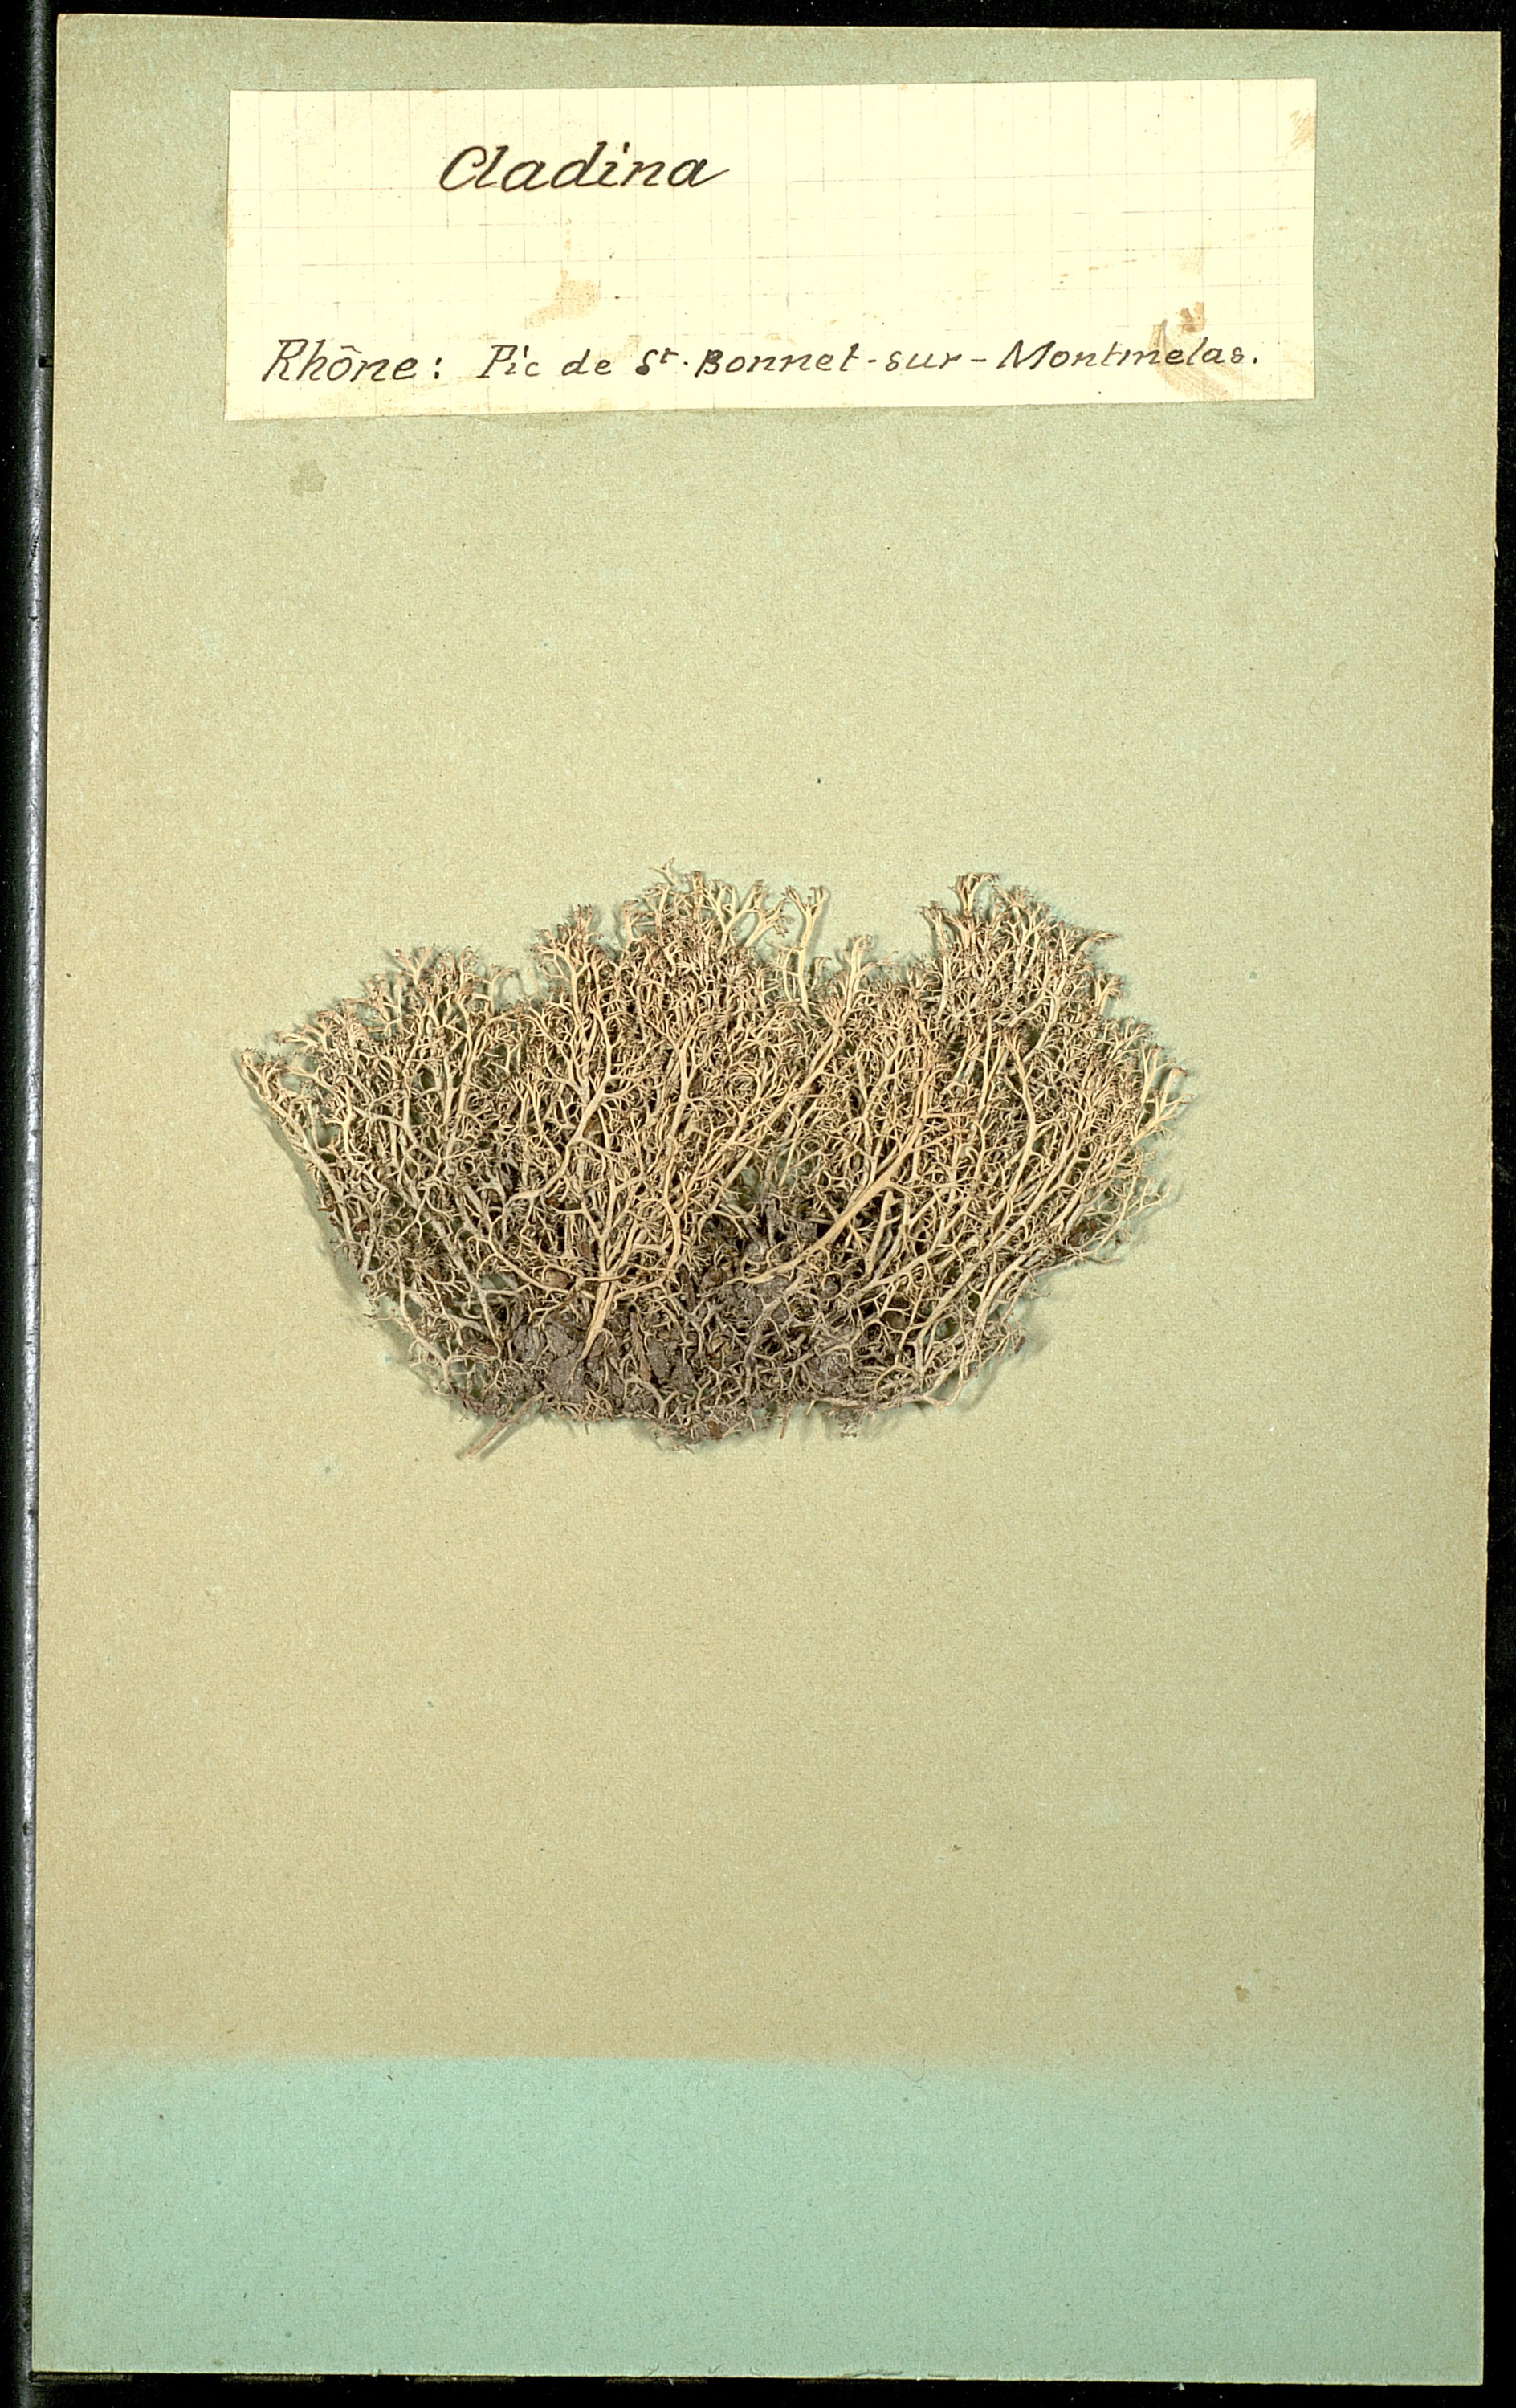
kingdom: Fungi
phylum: Ascomycota
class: Lecanoromycetes
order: Lecanorales
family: Cladoniaceae
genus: Cladonia
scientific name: Cladonia
